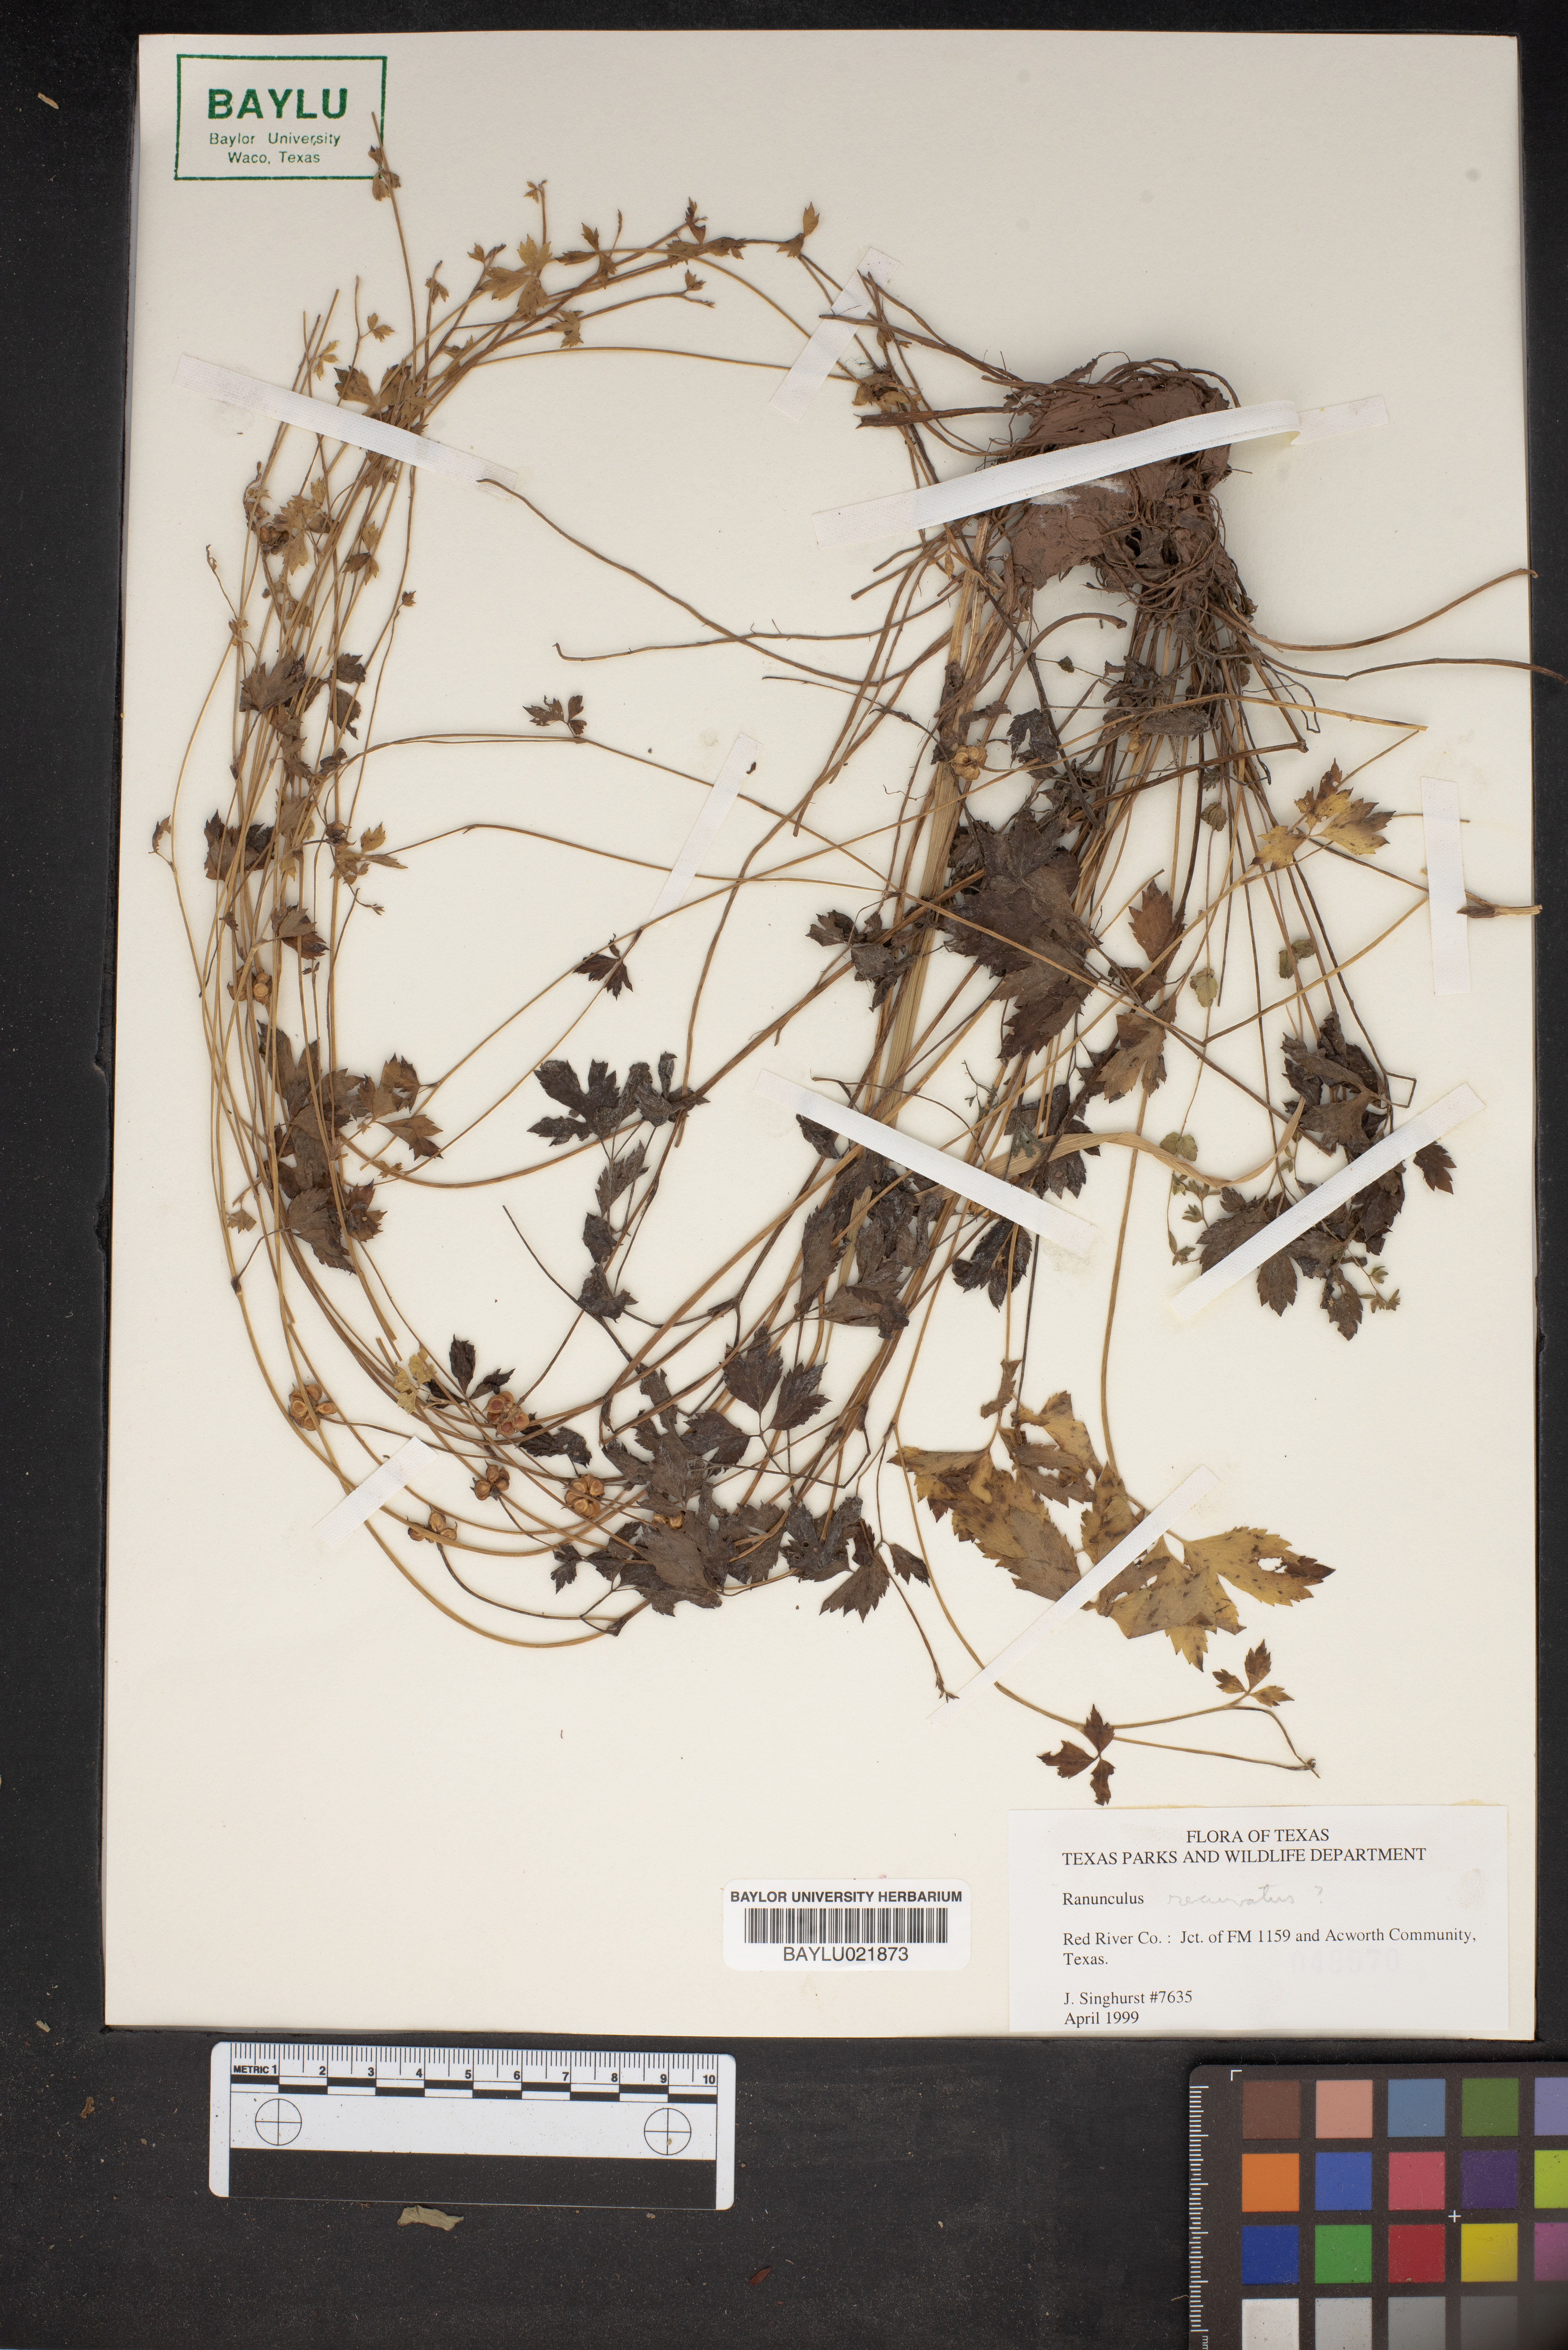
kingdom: Plantae
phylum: Tracheophyta
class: Magnoliopsida
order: Ranunculales
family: Ranunculaceae
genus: Ranunculus
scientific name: Ranunculus recurvatus
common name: Blisterwort
